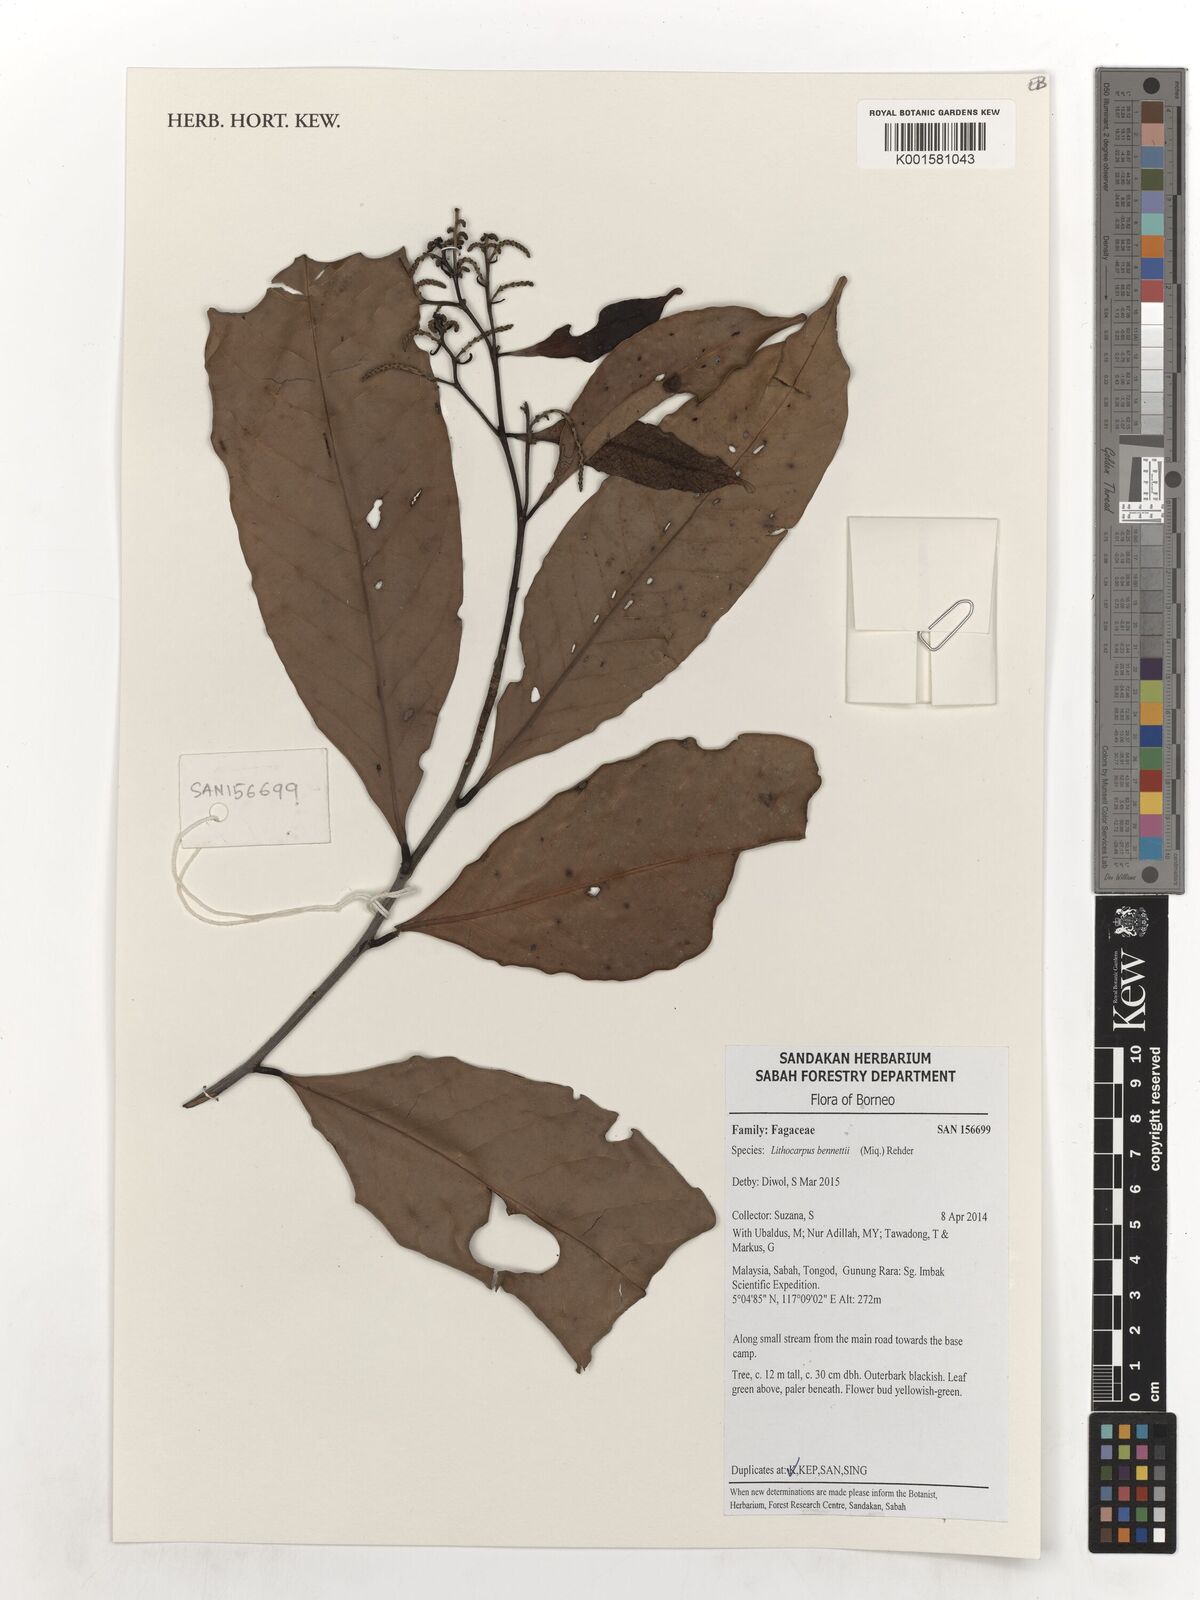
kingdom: Plantae
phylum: Tracheophyta
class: Magnoliopsida
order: Fagales
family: Fagaceae
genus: Lithocarpus
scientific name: Lithocarpus bennettii
